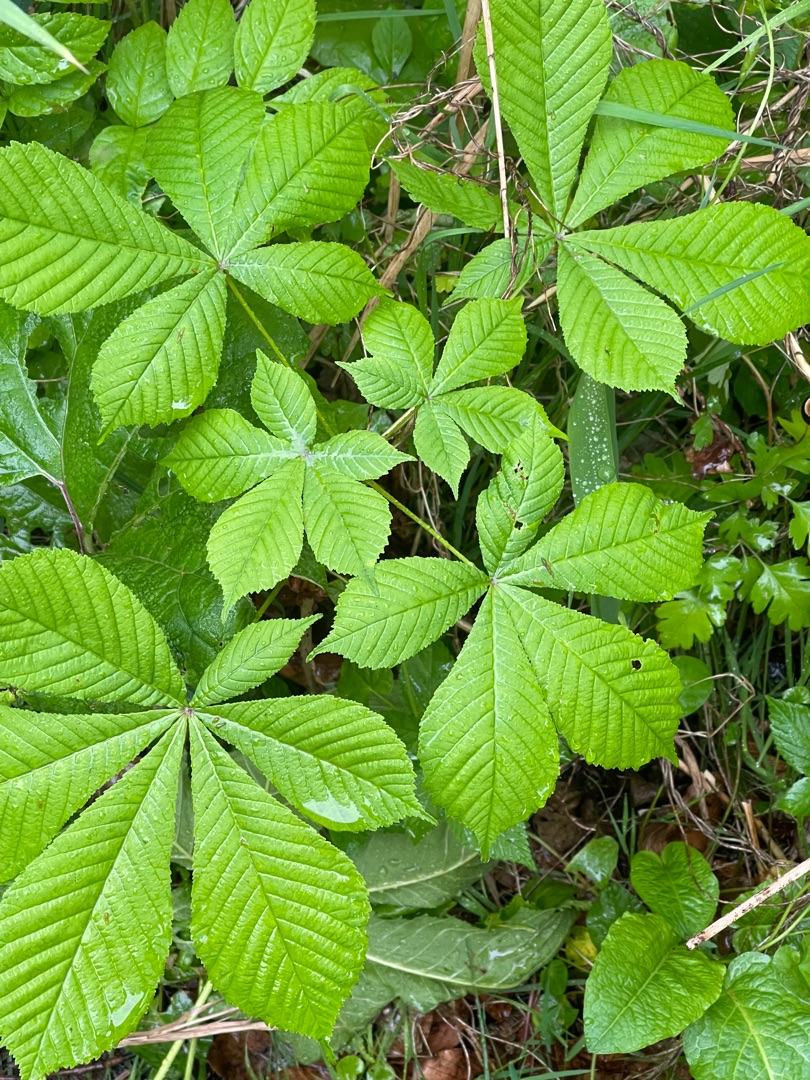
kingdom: Plantae
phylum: Tracheophyta
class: Magnoliopsida
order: Sapindales
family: Sapindaceae
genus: Aesculus
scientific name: Aesculus hippocastanum
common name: Hestekastanie
